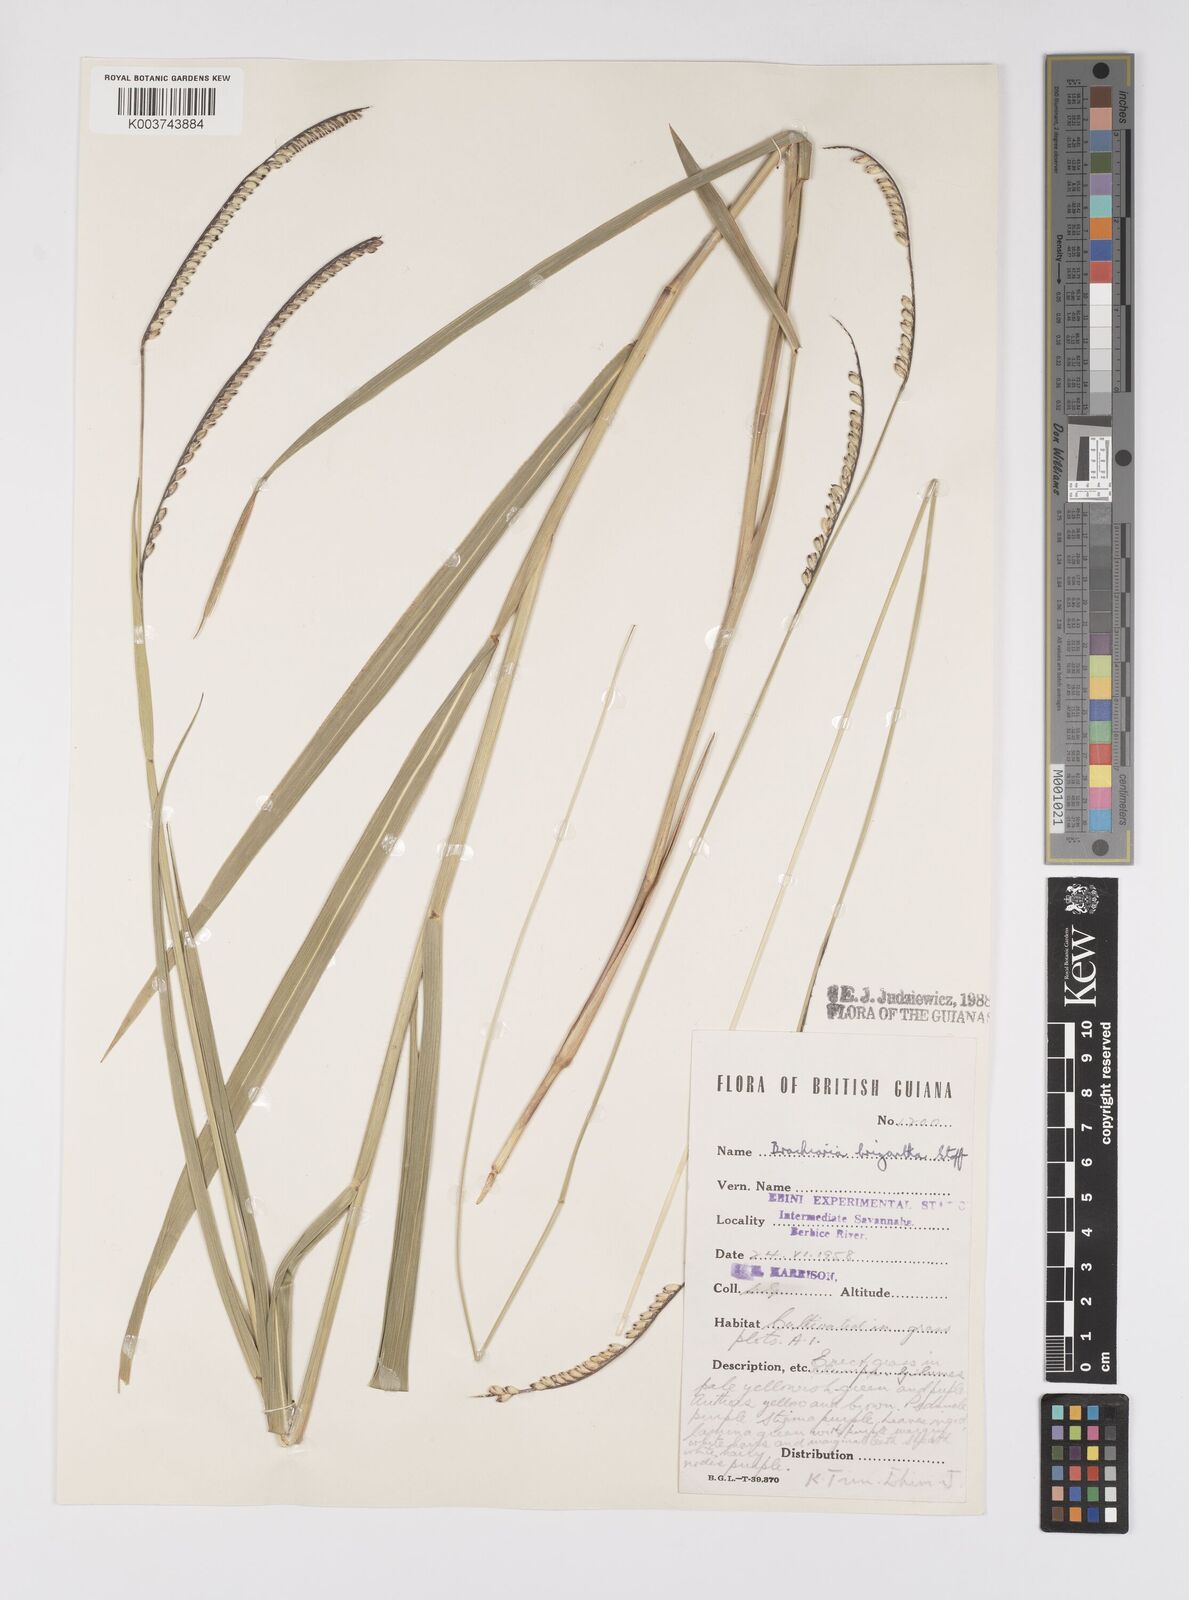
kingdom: Plantae
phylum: Tracheophyta
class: Liliopsida
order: Poales
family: Poaceae
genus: Urochloa
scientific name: Urochloa brizantha
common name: Palisade signalgrass
